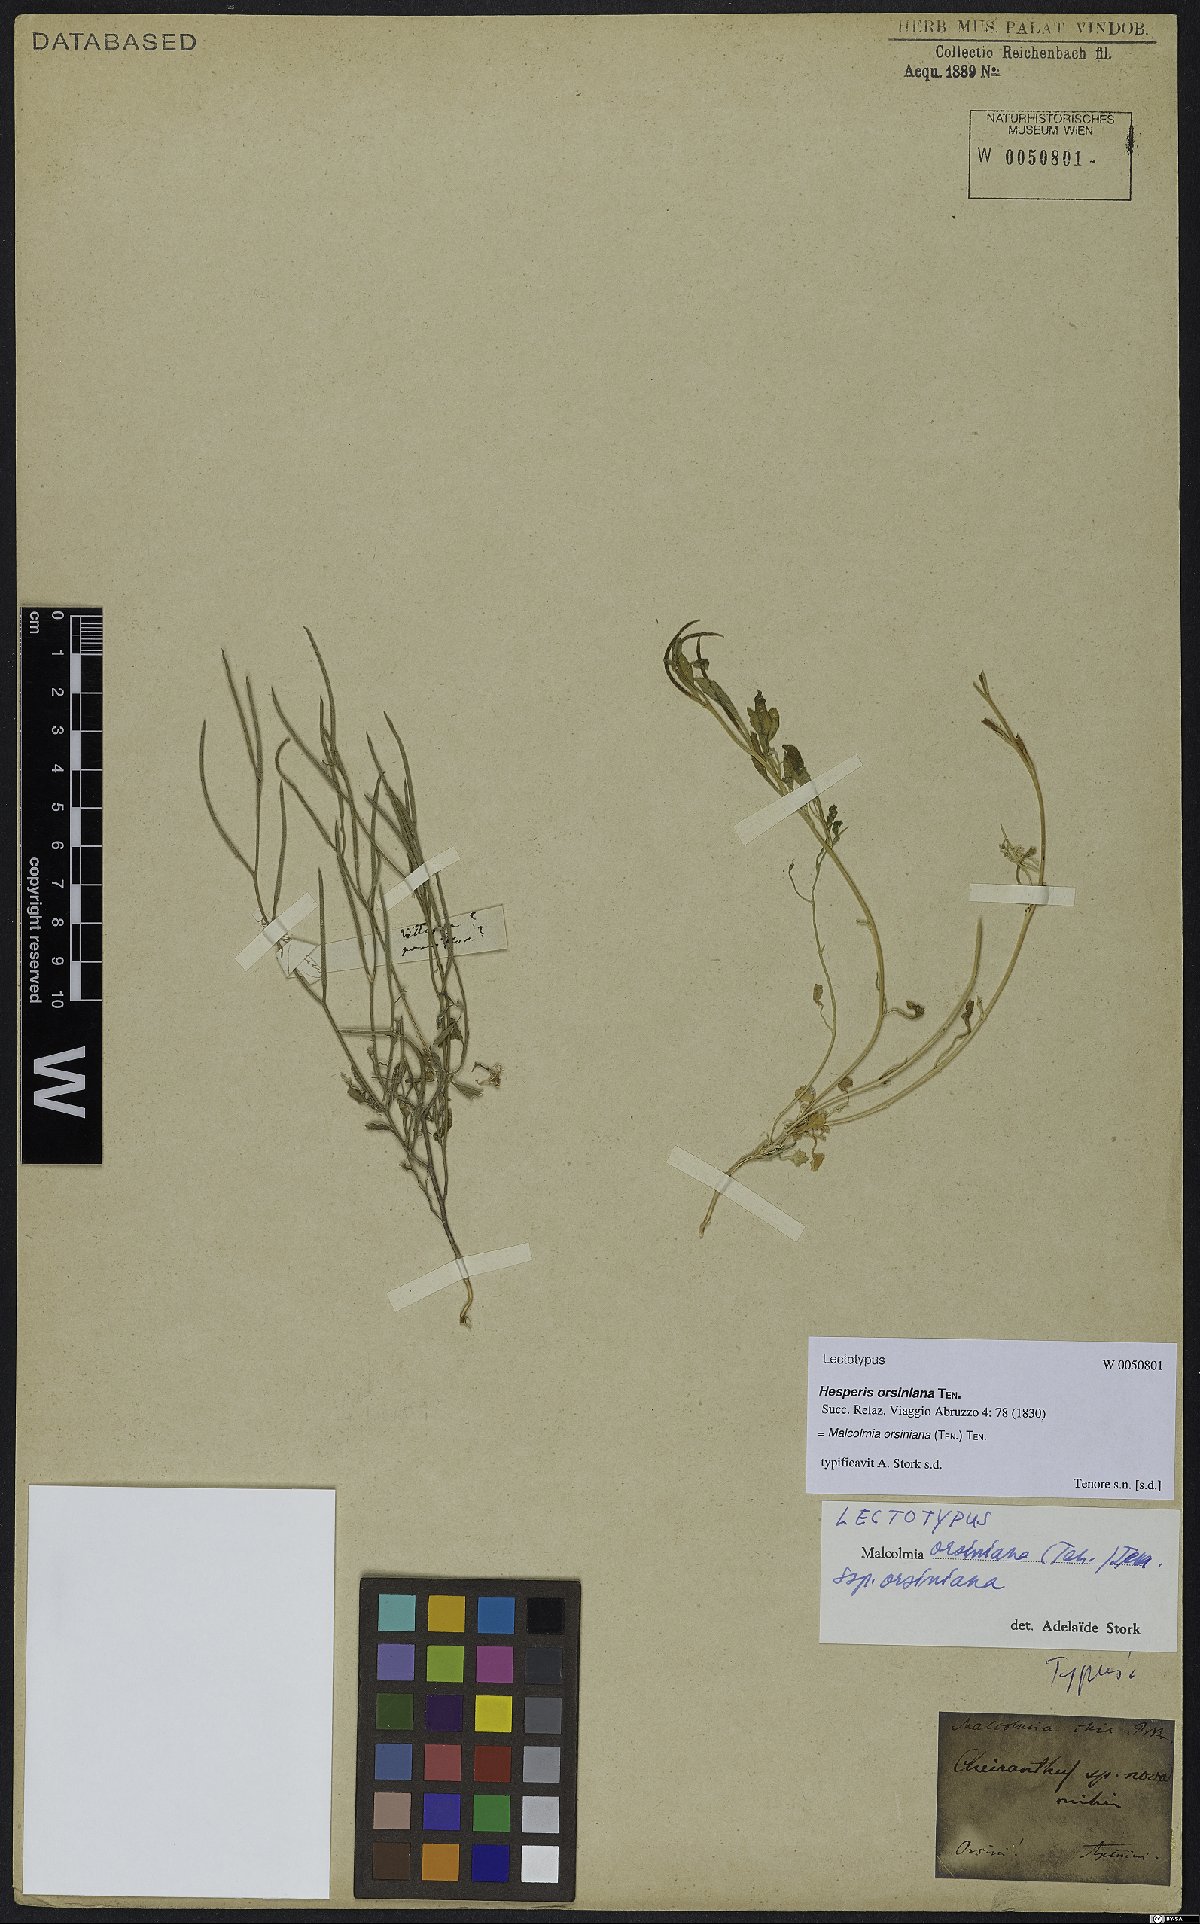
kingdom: Plantae
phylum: Tracheophyta
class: Magnoliopsida
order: Brassicales
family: Brassicaceae
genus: Malcolmia
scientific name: Malcolmia orsiniana
